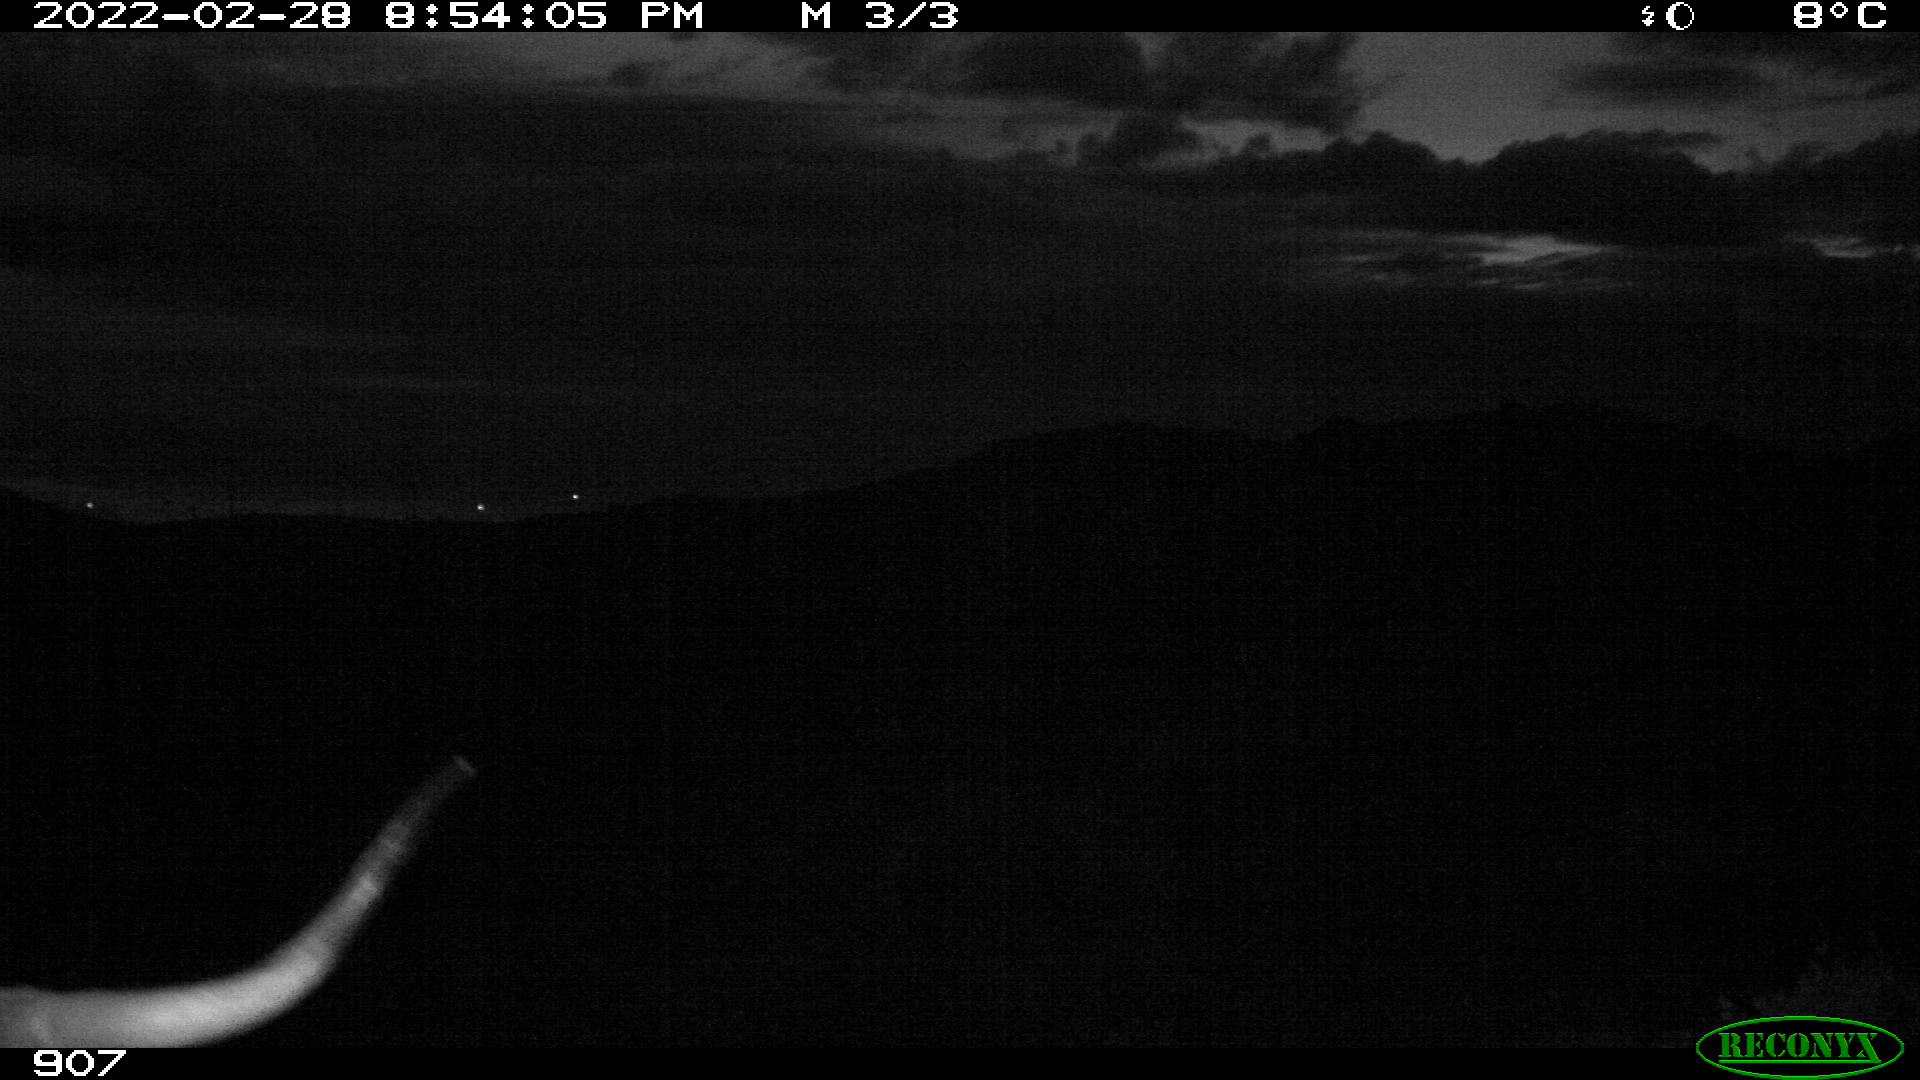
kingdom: Animalia
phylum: Chordata
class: Mammalia
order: Artiodactyla
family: Bovidae
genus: Bos
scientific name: Bos taurus
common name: Domesticated cattle
